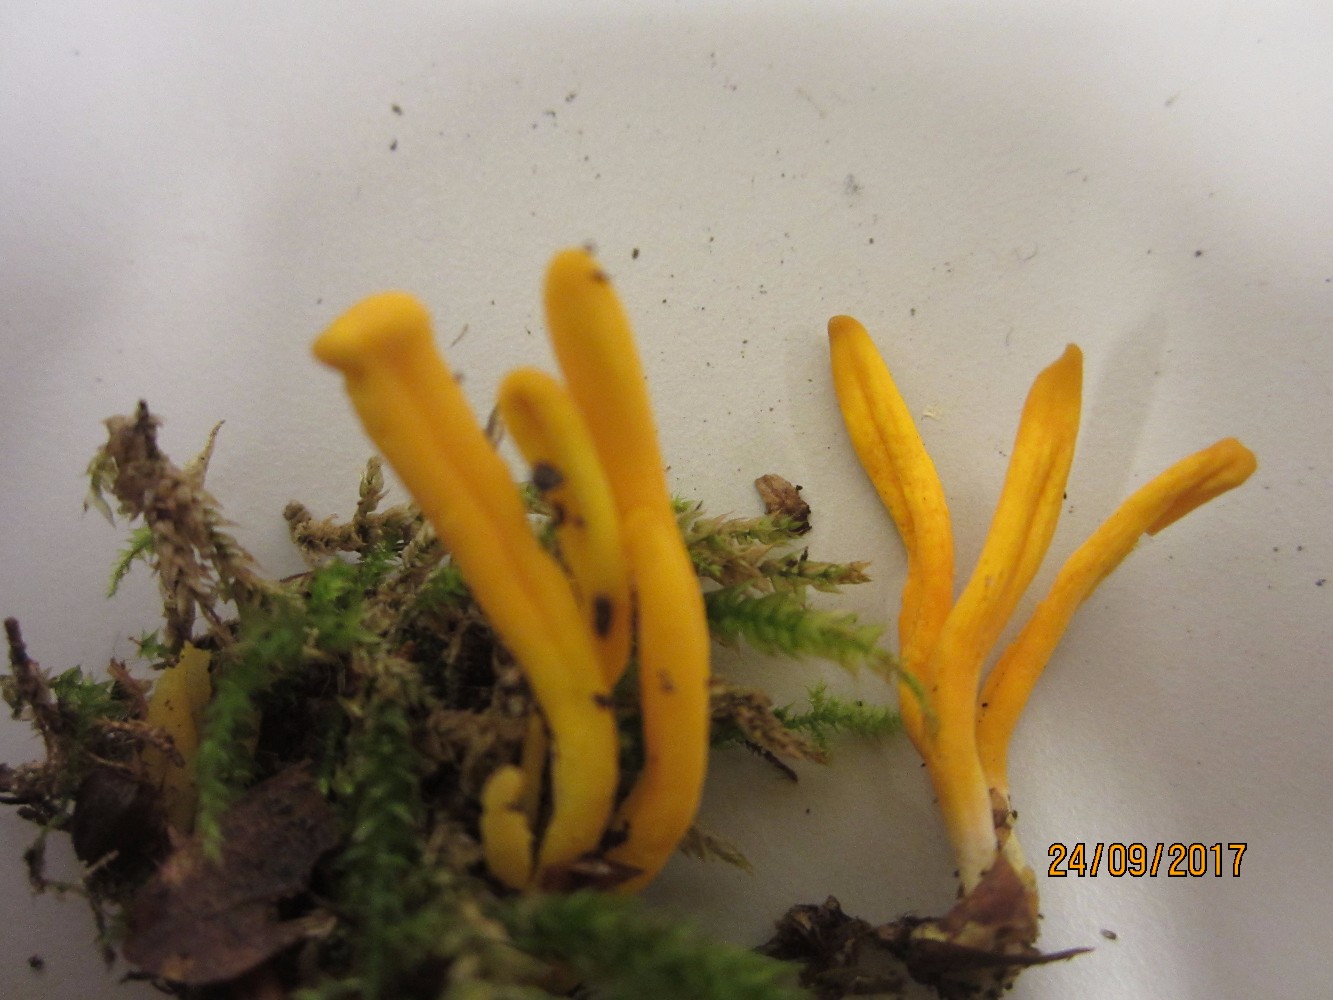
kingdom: Fungi
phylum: Basidiomycota
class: Agaricomycetes
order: Agaricales
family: Clavariaceae
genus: Clavulinopsis
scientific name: Clavulinopsis helvola
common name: orangegul køllesvamp
